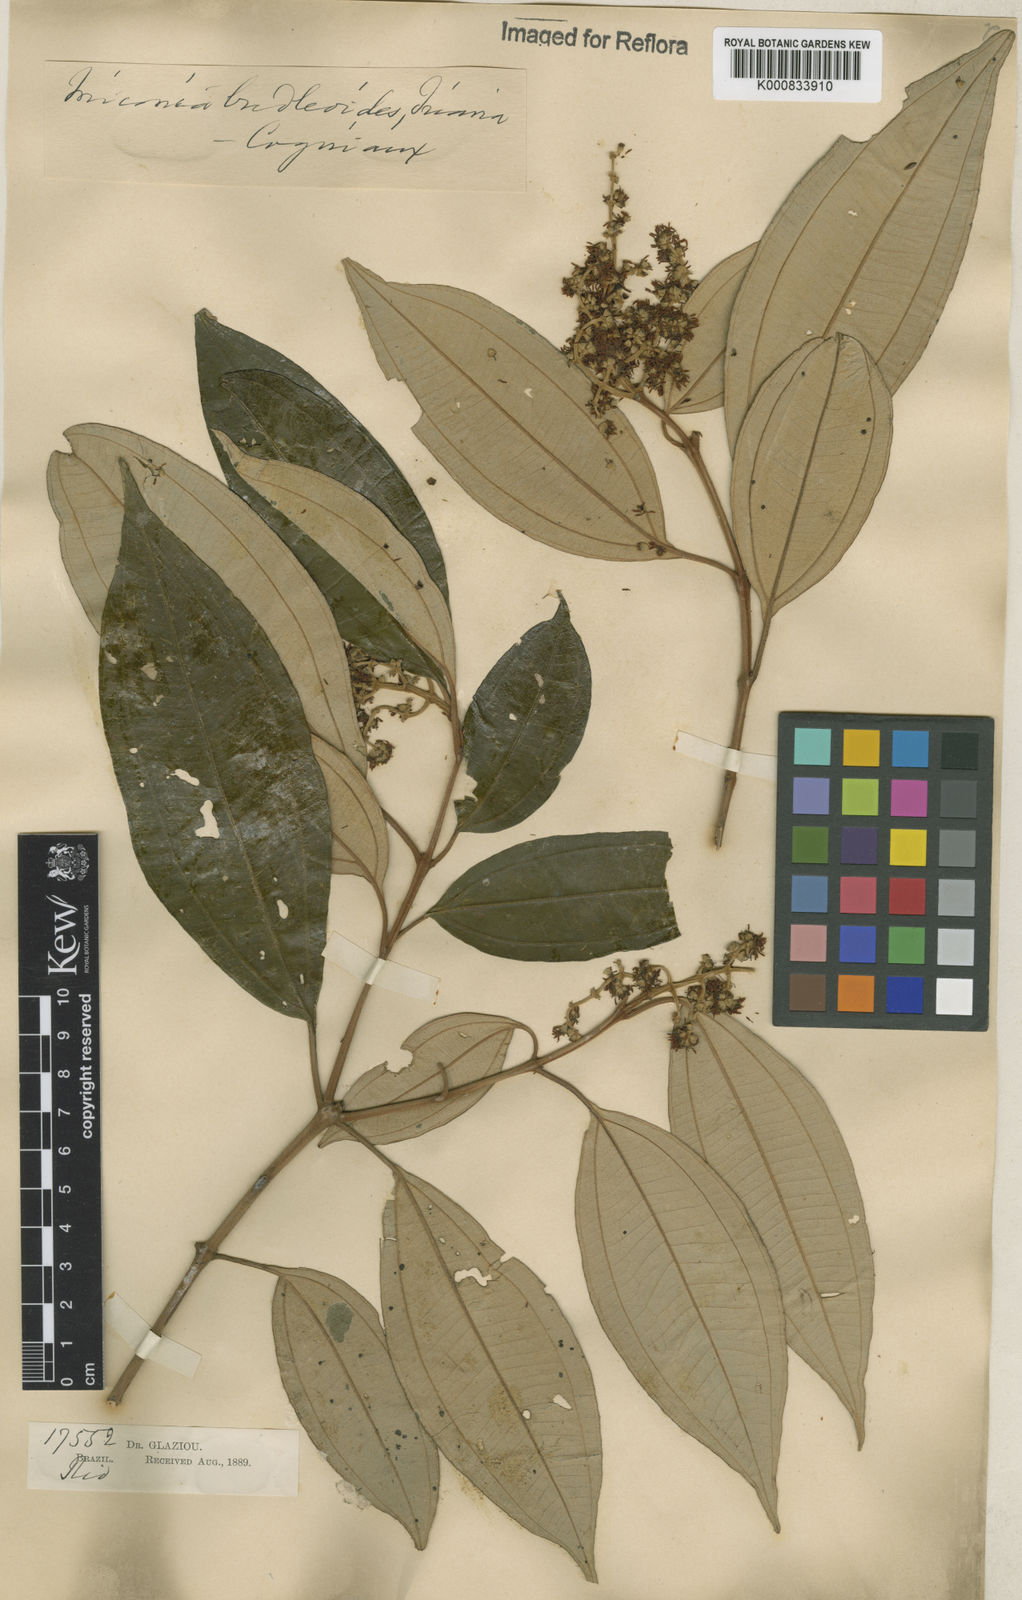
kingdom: Plantae
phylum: Tracheophyta
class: Magnoliopsida
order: Myrtales
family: Melastomataceae
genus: Miconia
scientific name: Miconia buddlejoides
